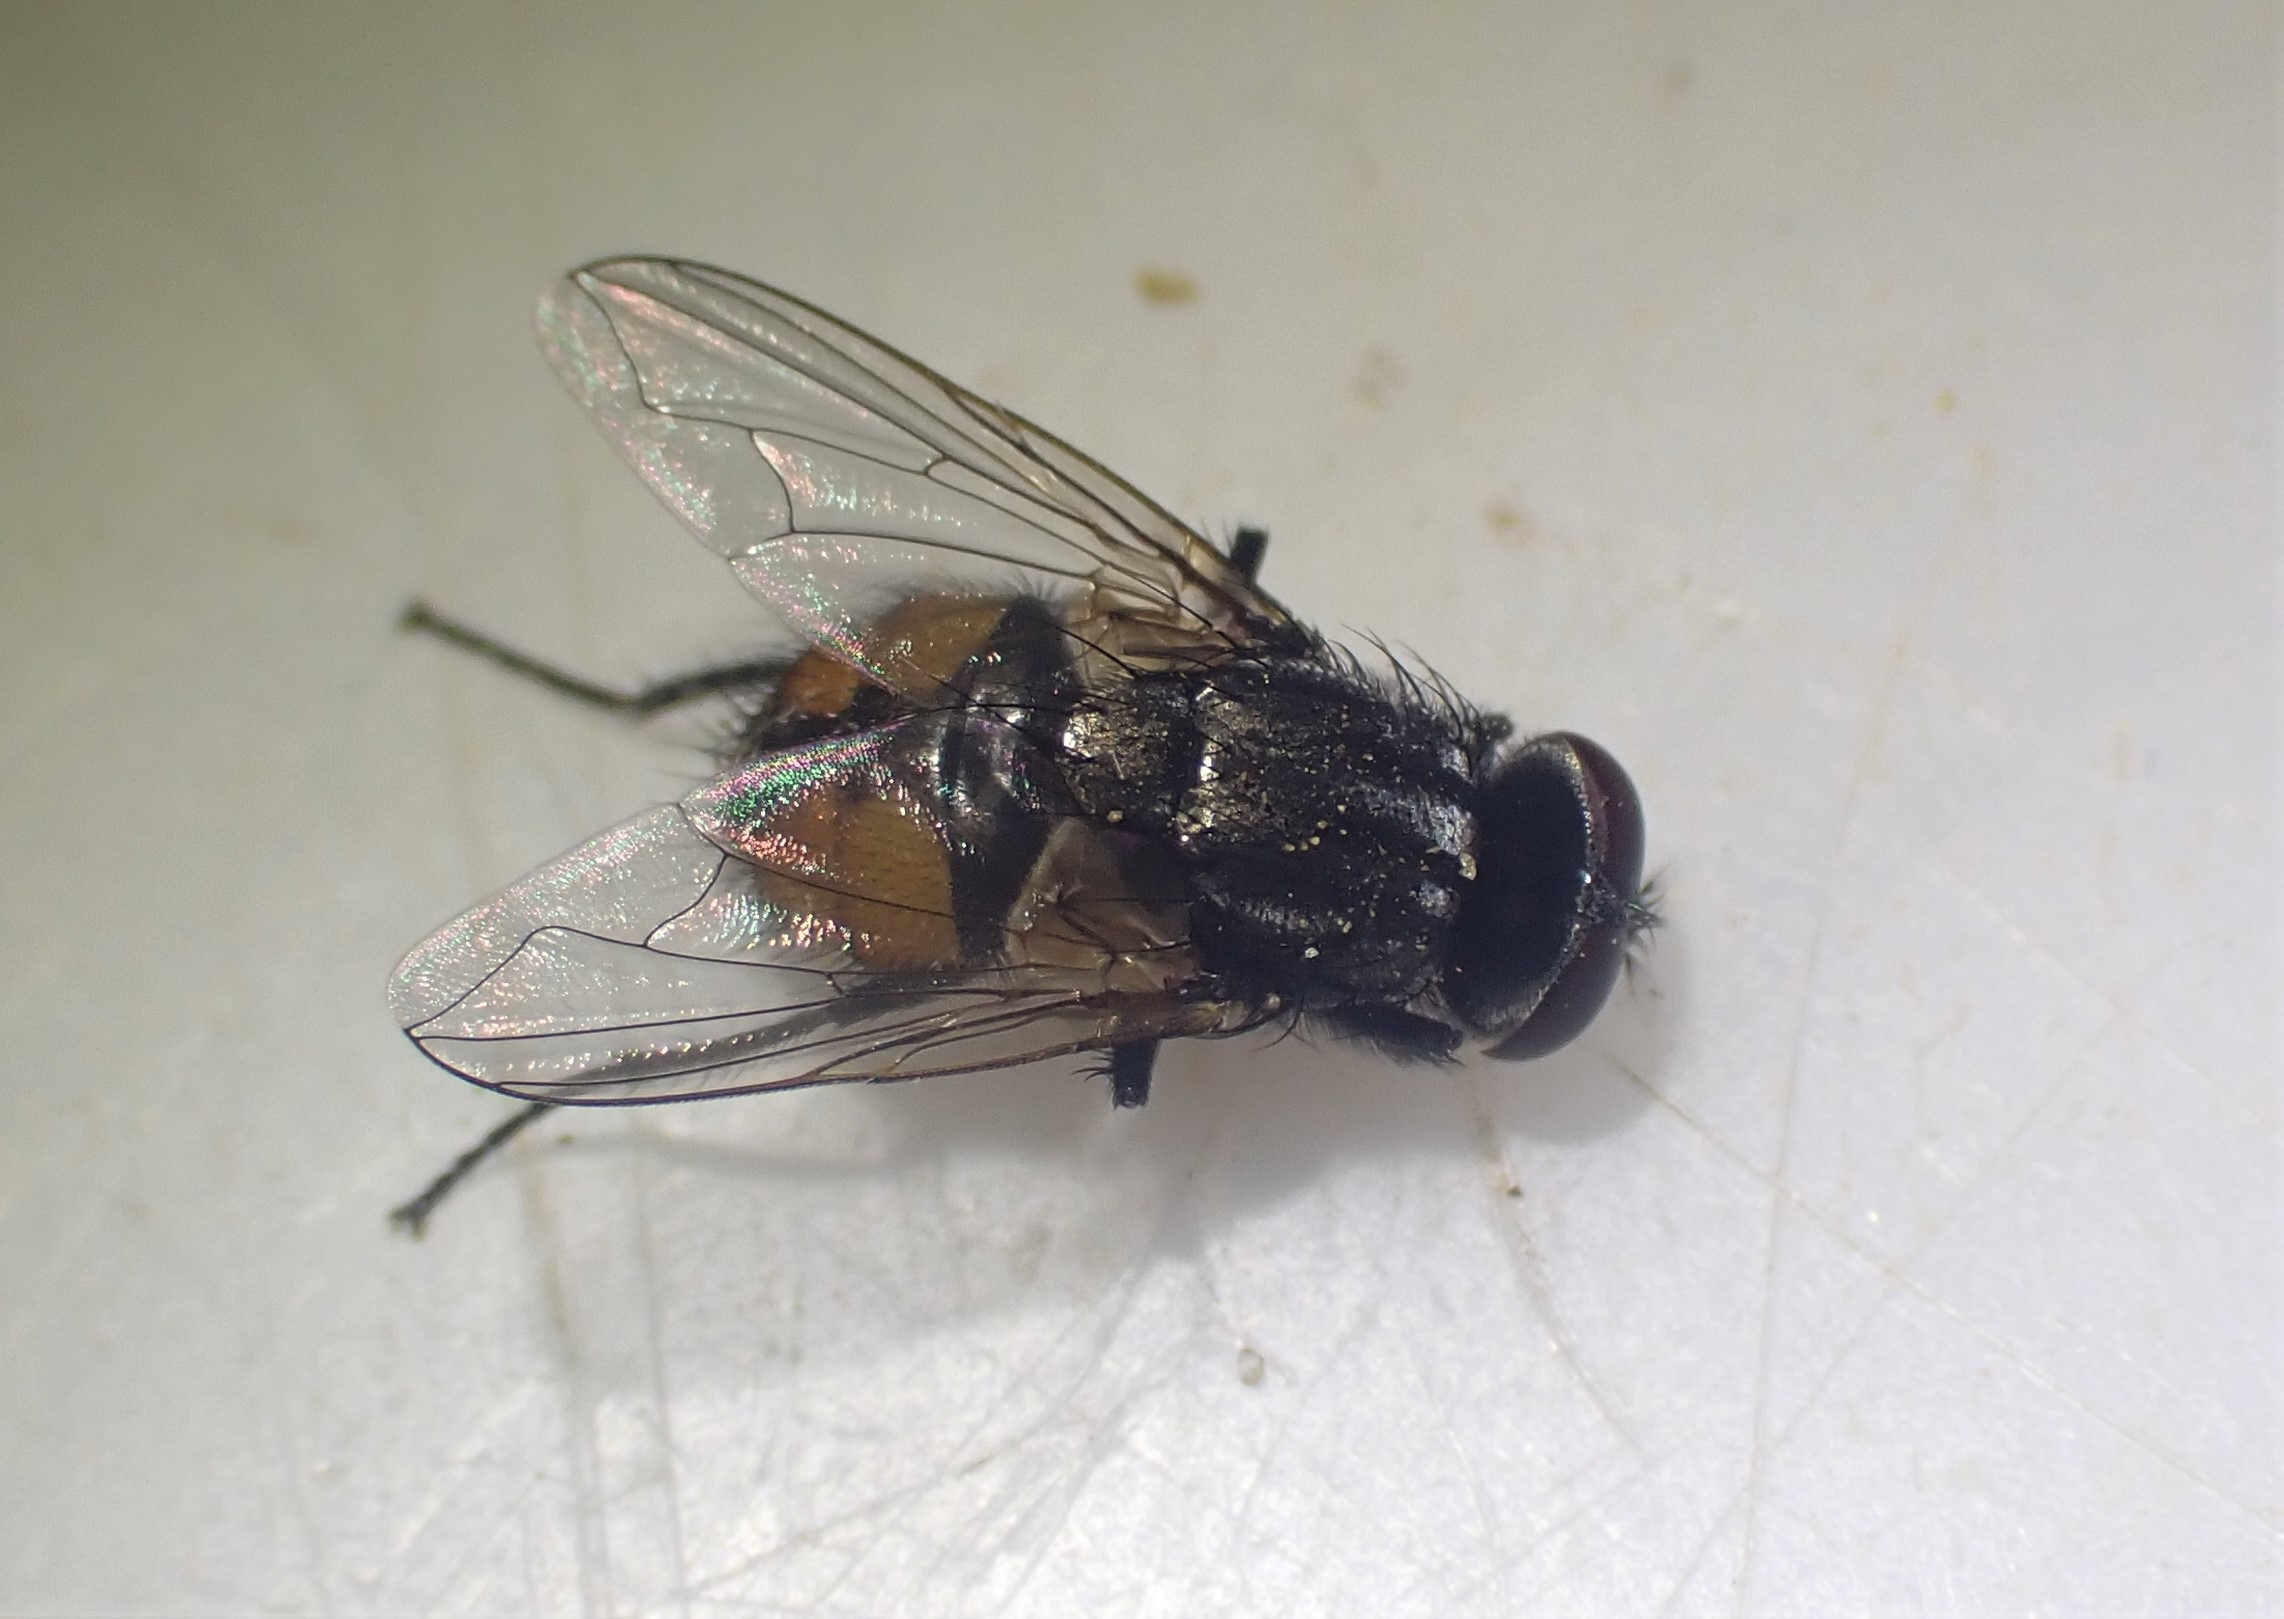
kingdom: Animalia
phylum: Arthropoda
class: Insecta
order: Diptera
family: Muscidae
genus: Musca
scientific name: Musca autumnalis
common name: Kvægflue
